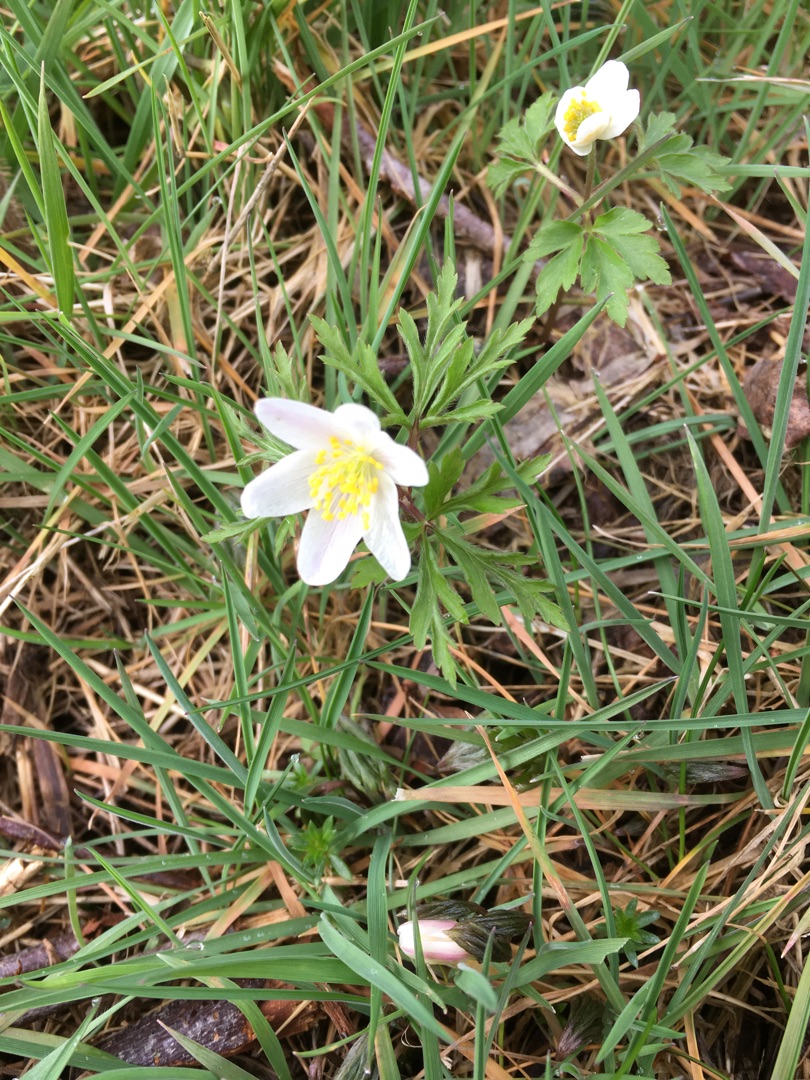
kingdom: Plantae
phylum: Tracheophyta
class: Magnoliopsida
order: Ranunculales
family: Ranunculaceae
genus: Anemone
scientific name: Anemone nemorosa
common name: Hvid anemone
